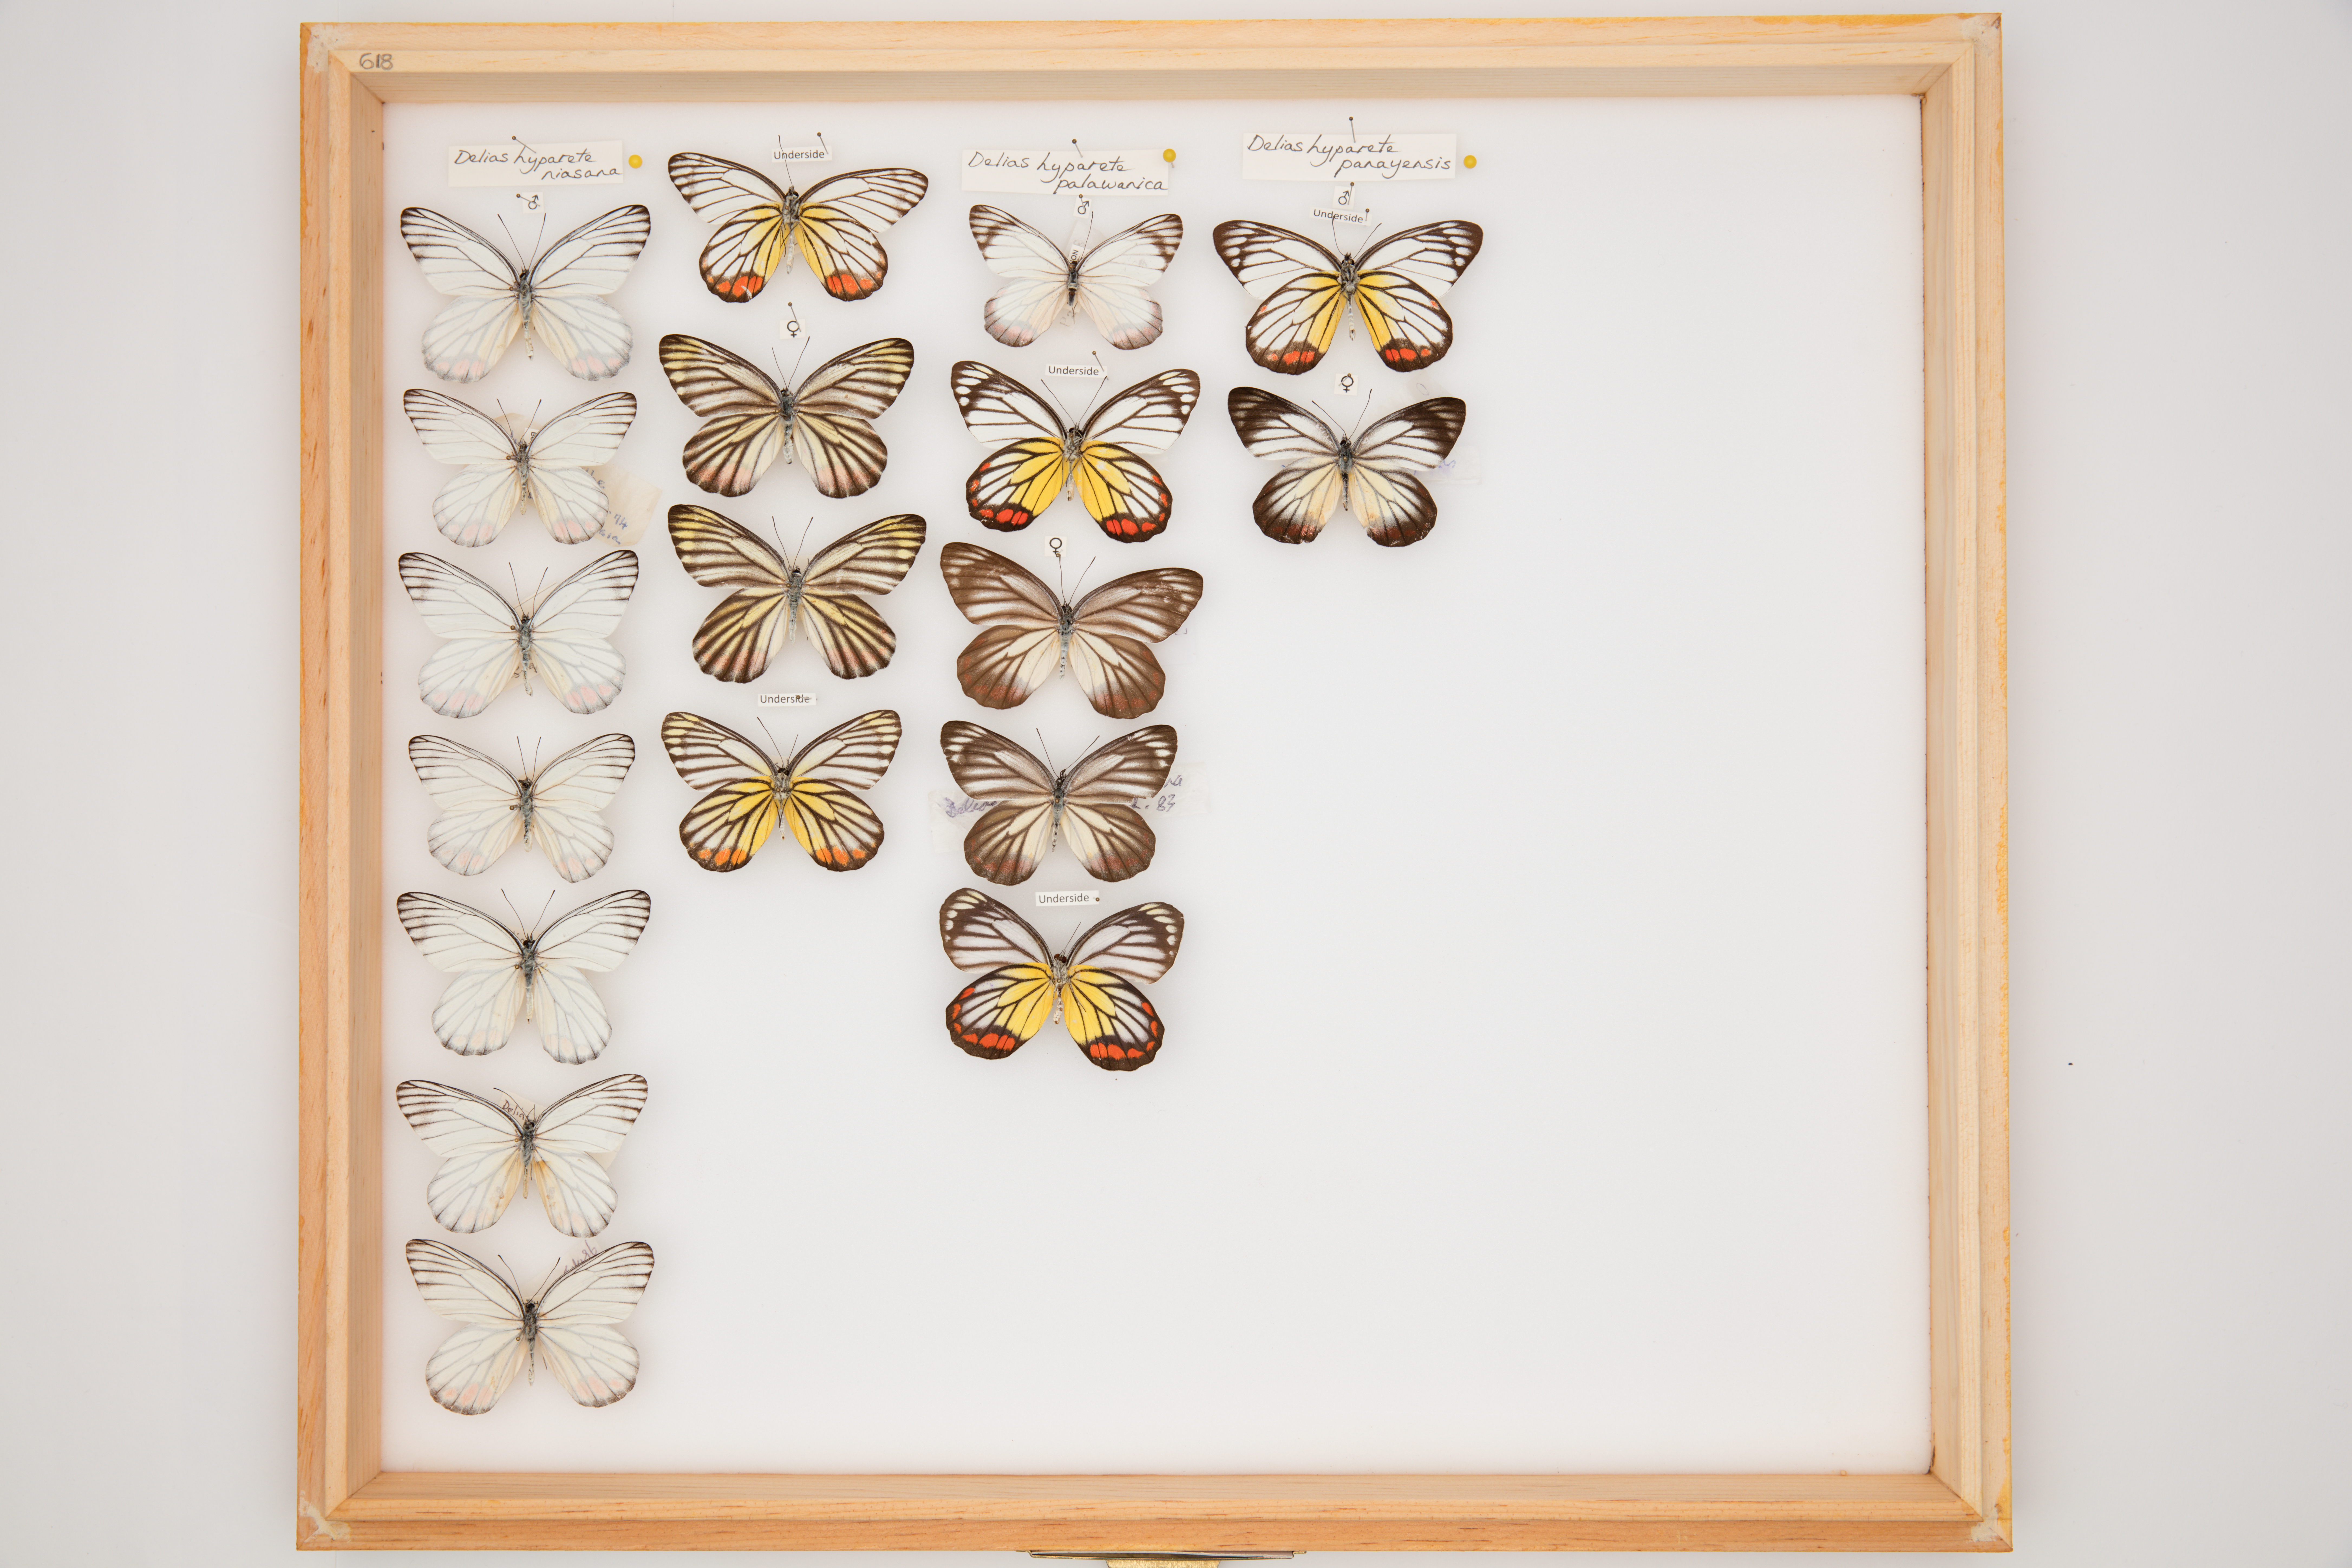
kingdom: Animalia
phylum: Arthropoda
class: Insecta
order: Lepidoptera
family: Pieridae
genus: Delias
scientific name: Delias hyparete
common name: Painted jezebel
